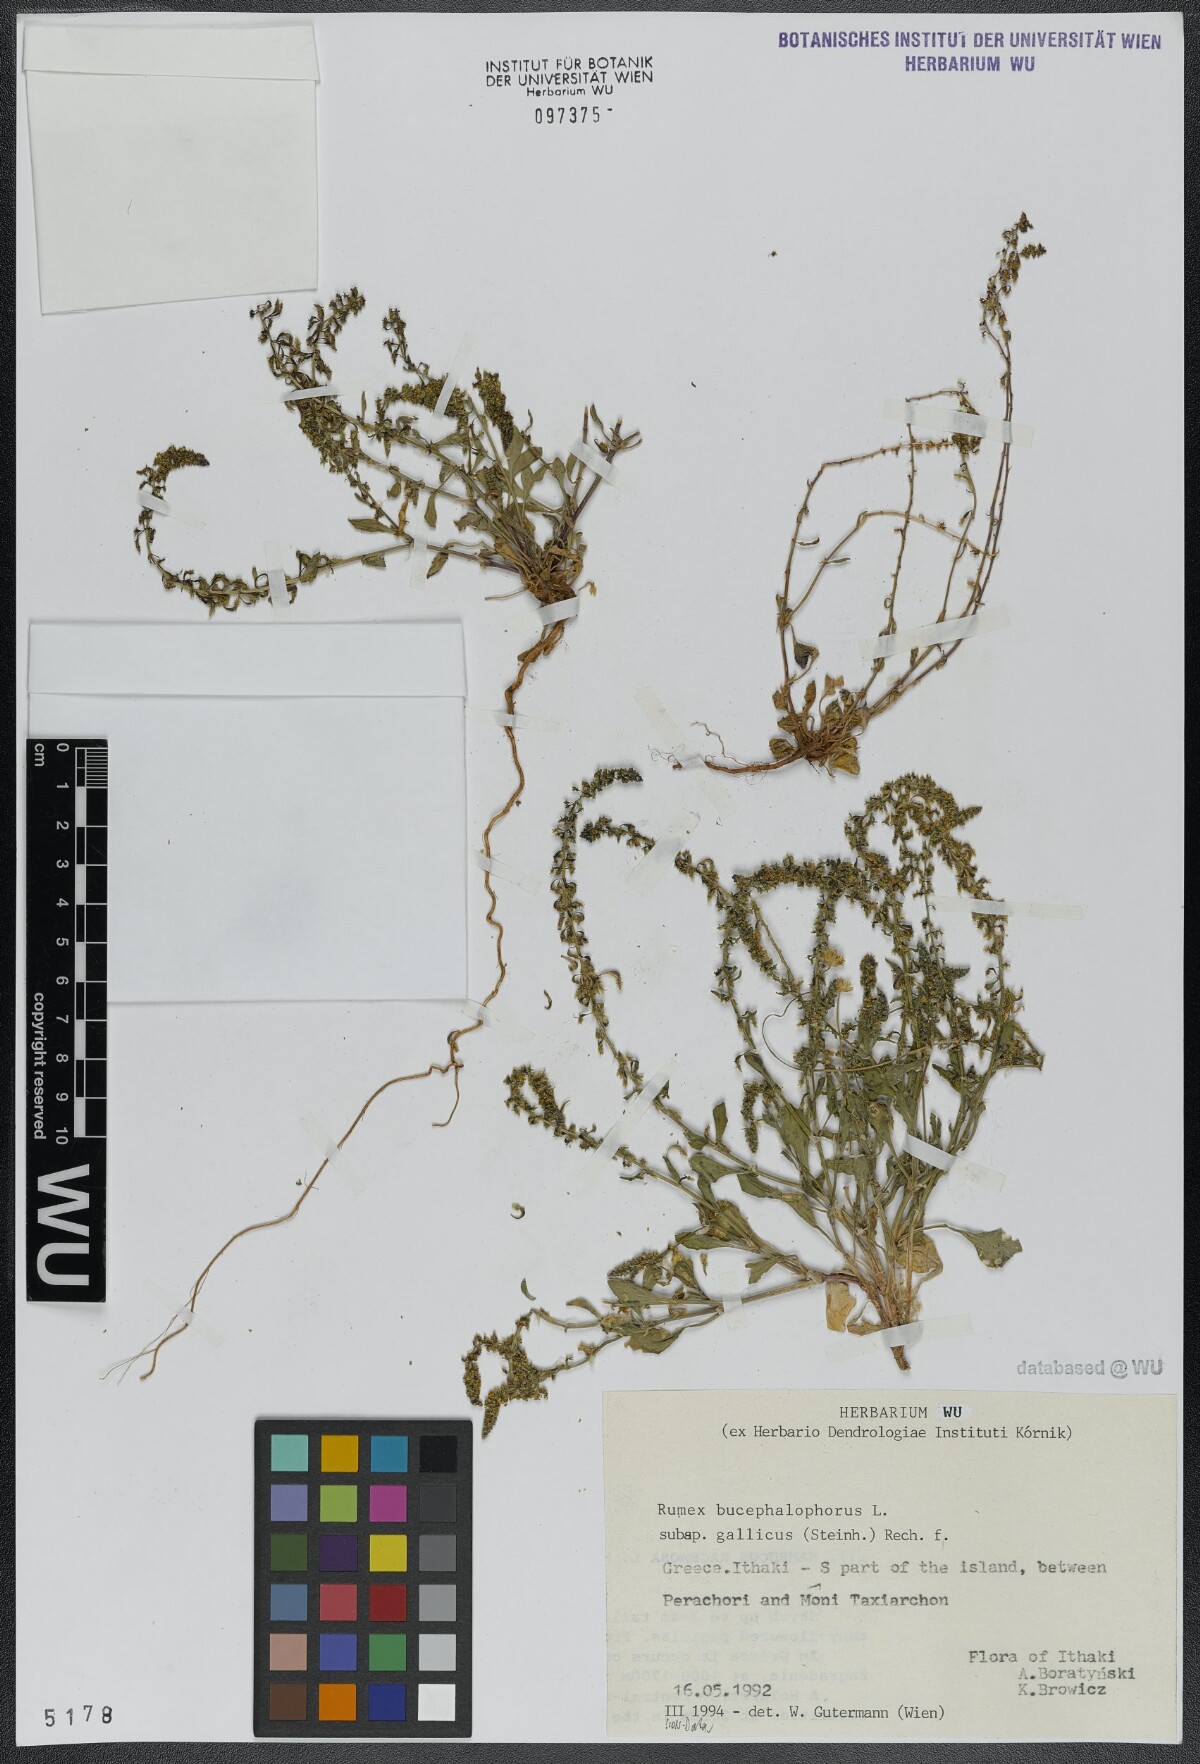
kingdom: Plantae
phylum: Tracheophyta
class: Magnoliopsida
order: Caryophyllales
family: Polygonaceae
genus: Rumex
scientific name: Rumex bucephalophorus
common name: Red dock
